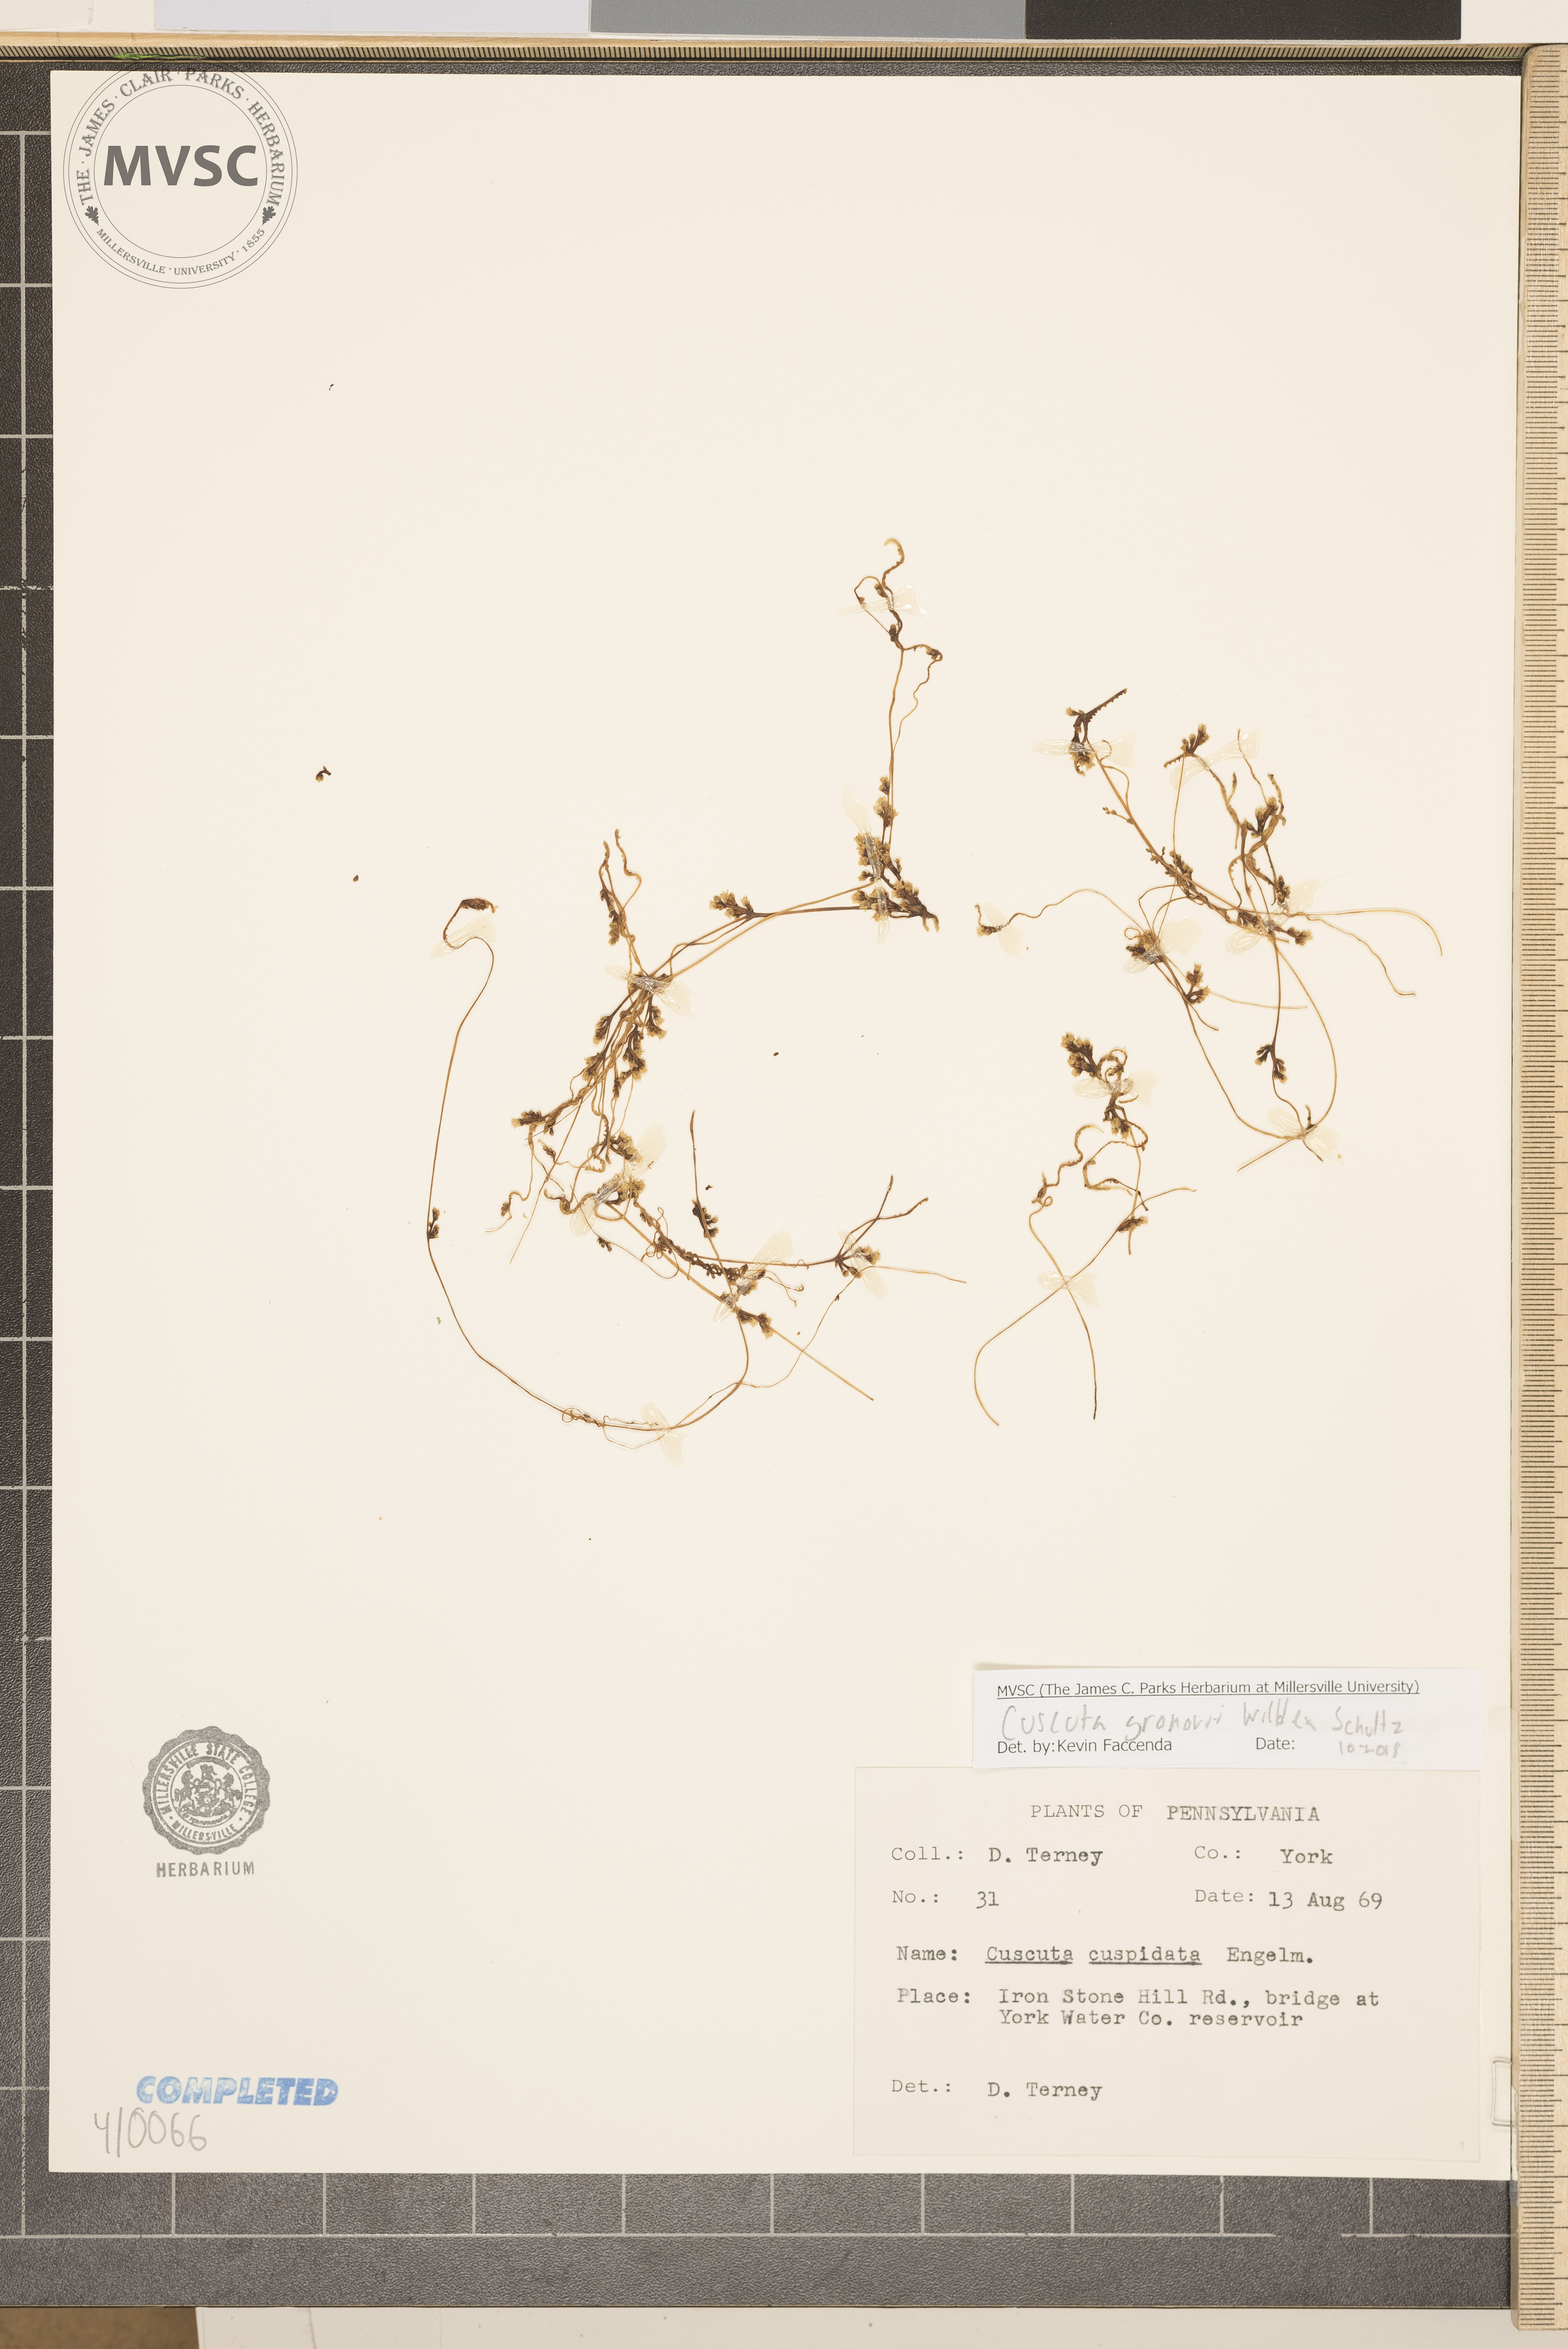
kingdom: Plantae
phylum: Tracheophyta
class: Magnoliopsida
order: Solanales
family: Convolvulaceae
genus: Cuscuta
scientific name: Cuscuta gronovii
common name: Common dodder
